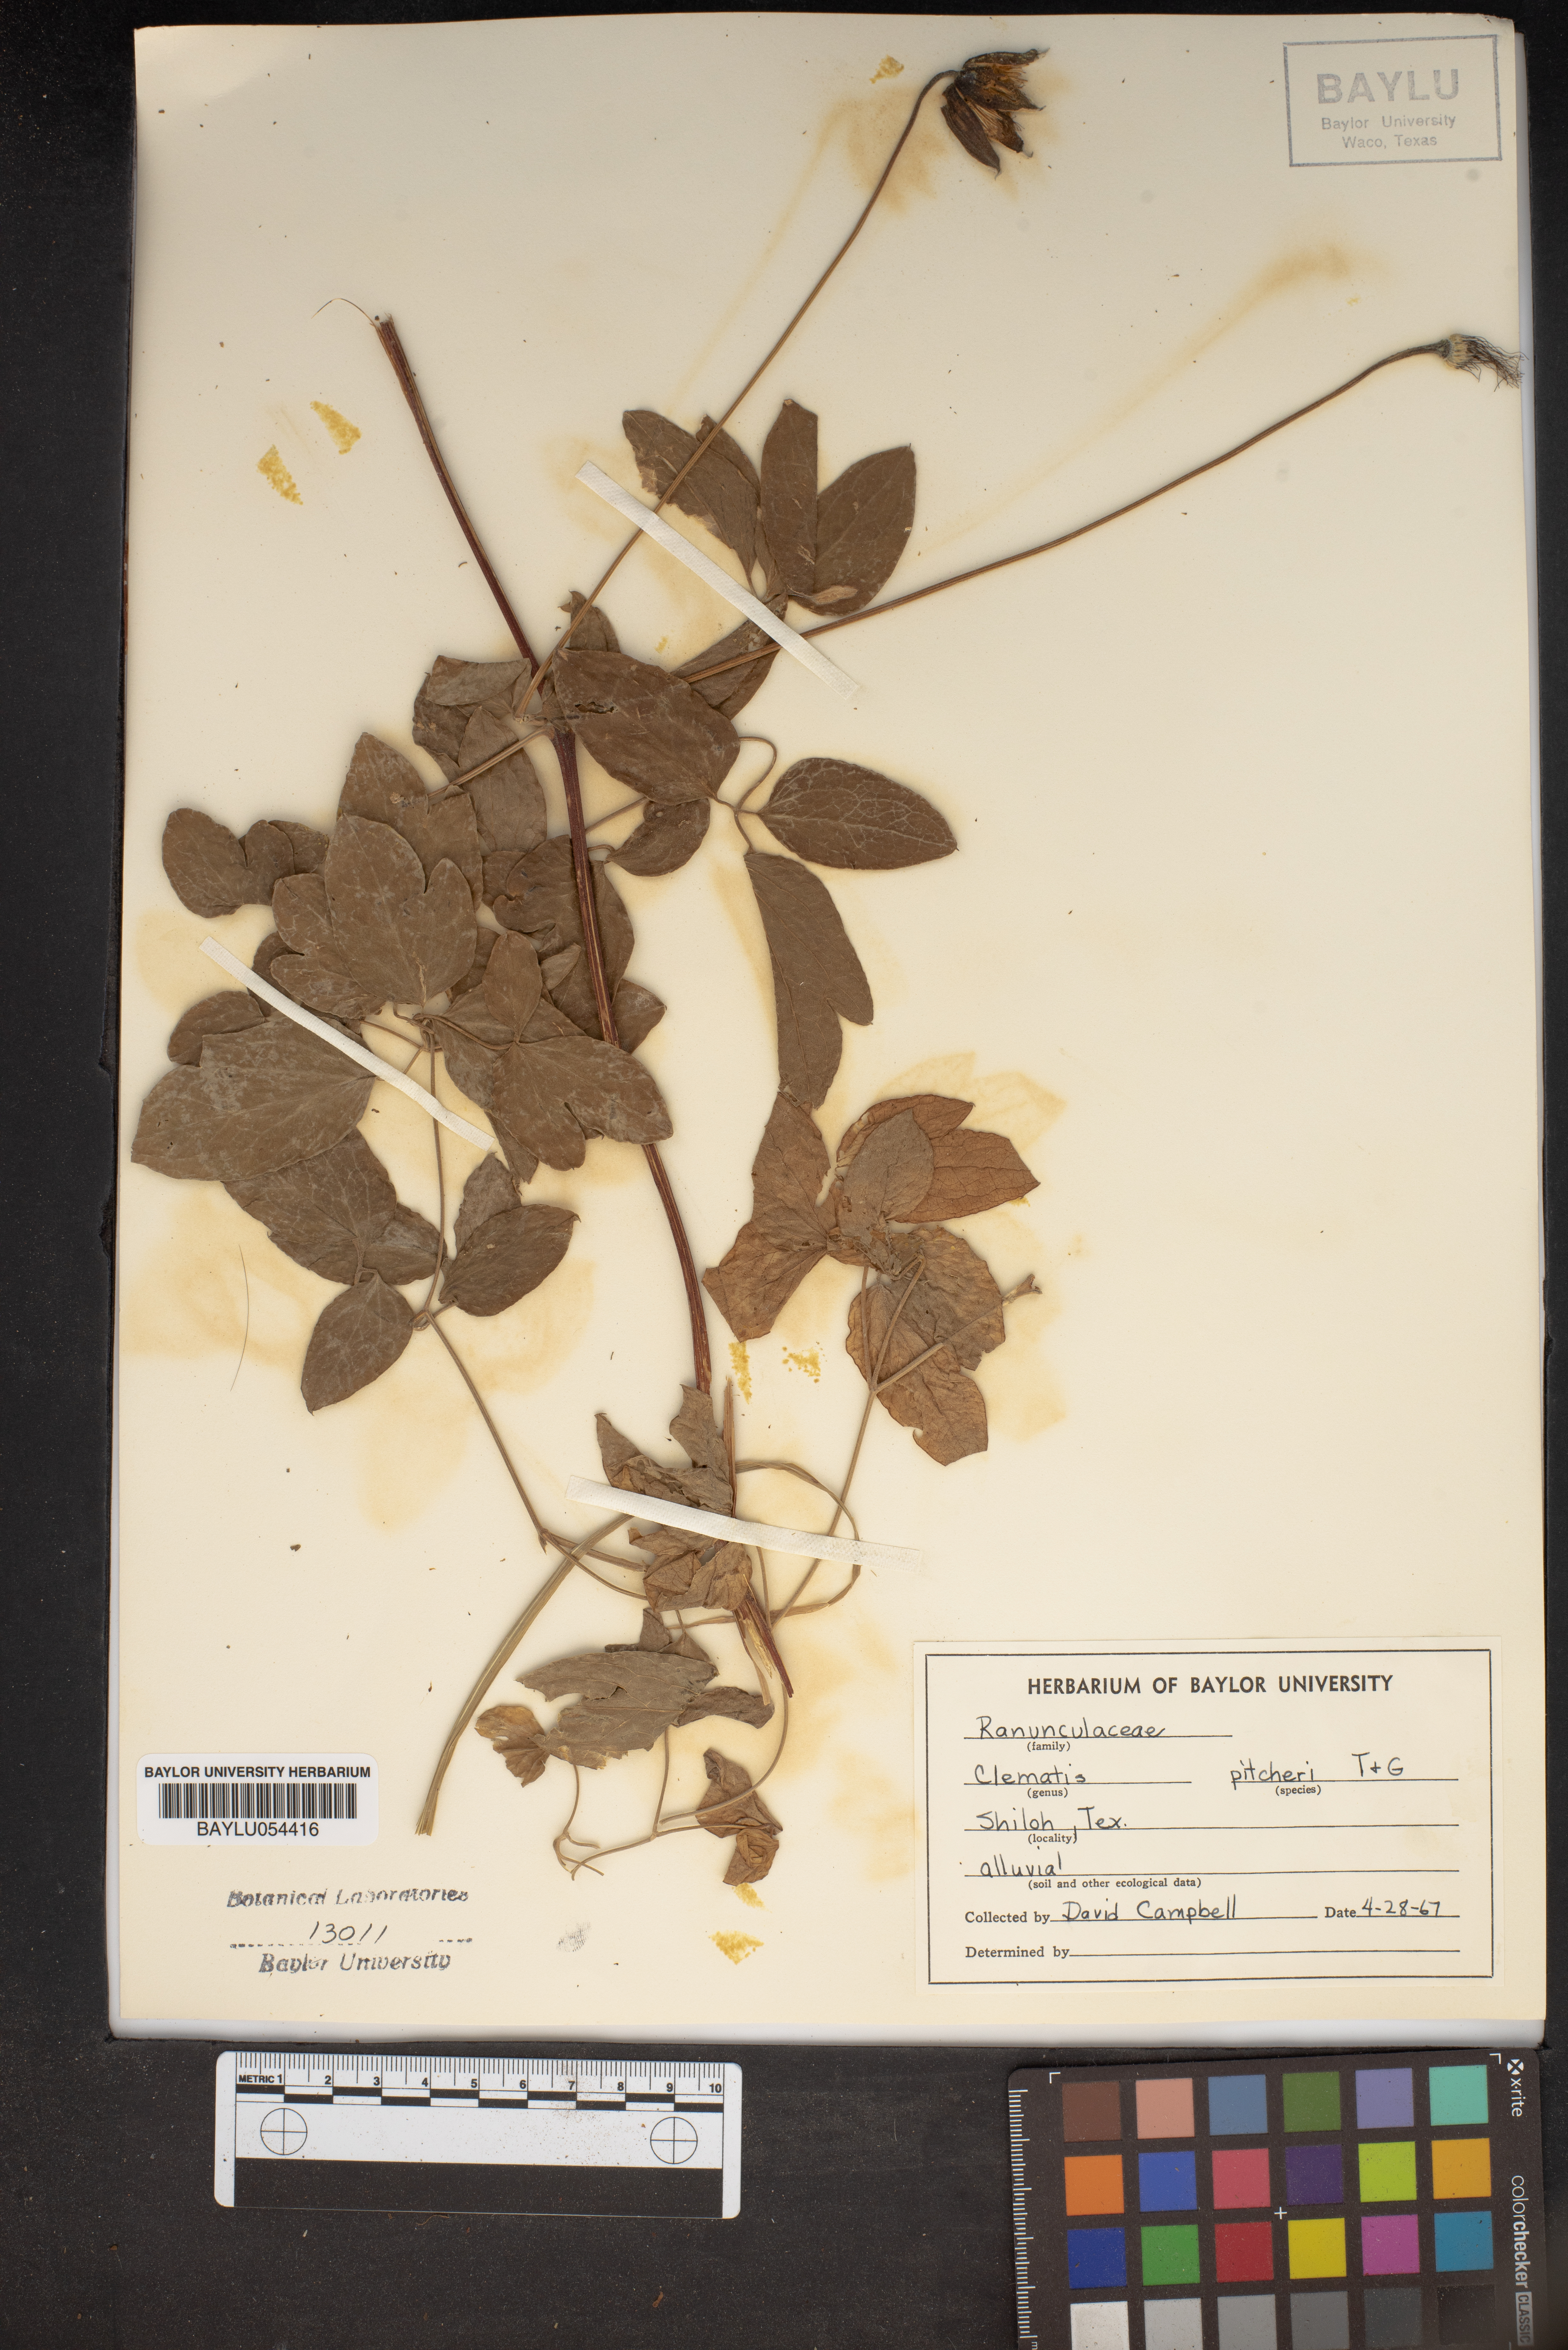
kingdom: Plantae
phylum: Tracheophyta
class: Magnoliopsida
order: Ranunculales
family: Ranunculaceae
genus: Clematis
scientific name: Clematis pitcheri
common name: Bellflower clematis
